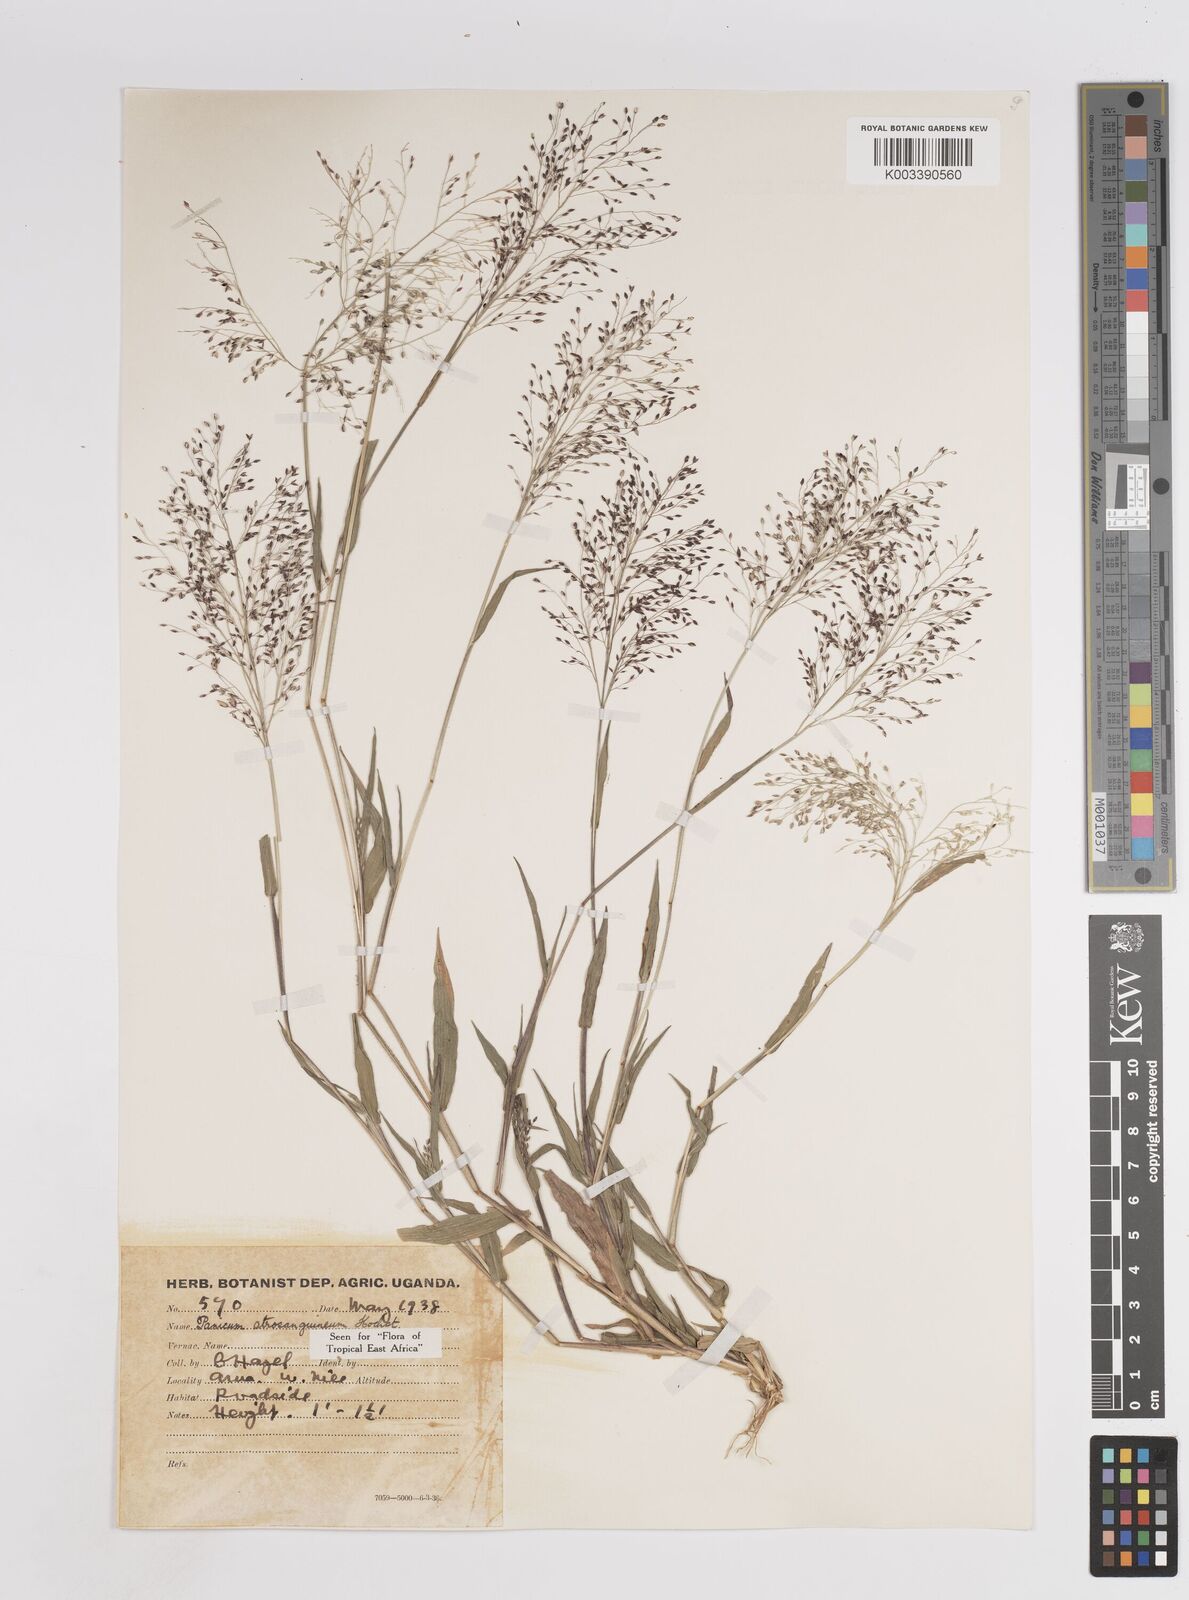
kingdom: Plantae
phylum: Tracheophyta
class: Liliopsida
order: Poales
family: Poaceae
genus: Panicum
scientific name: Panicum atrosanguineum
